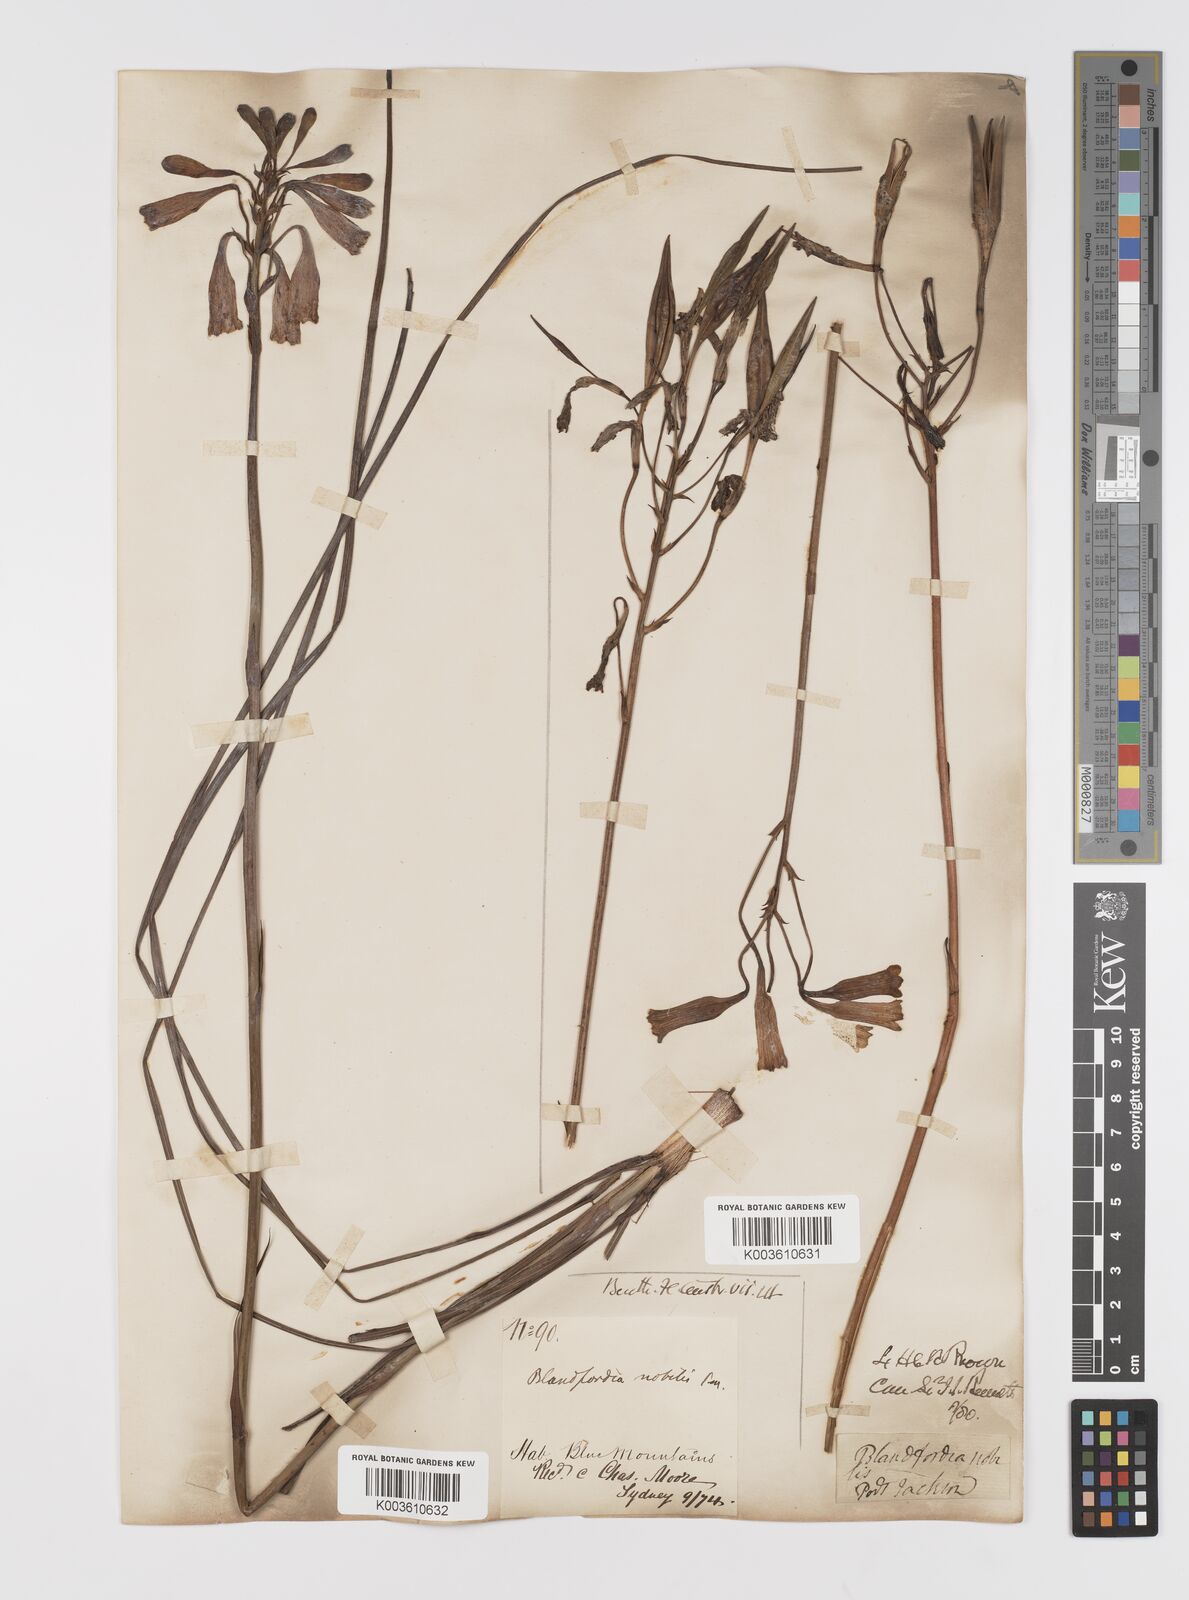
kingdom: Plantae
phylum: Tracheophyta
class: Liliopsida
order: Asparagales
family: Blandfordiaceae
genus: Blandfordia
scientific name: Blandfordia nobilis
